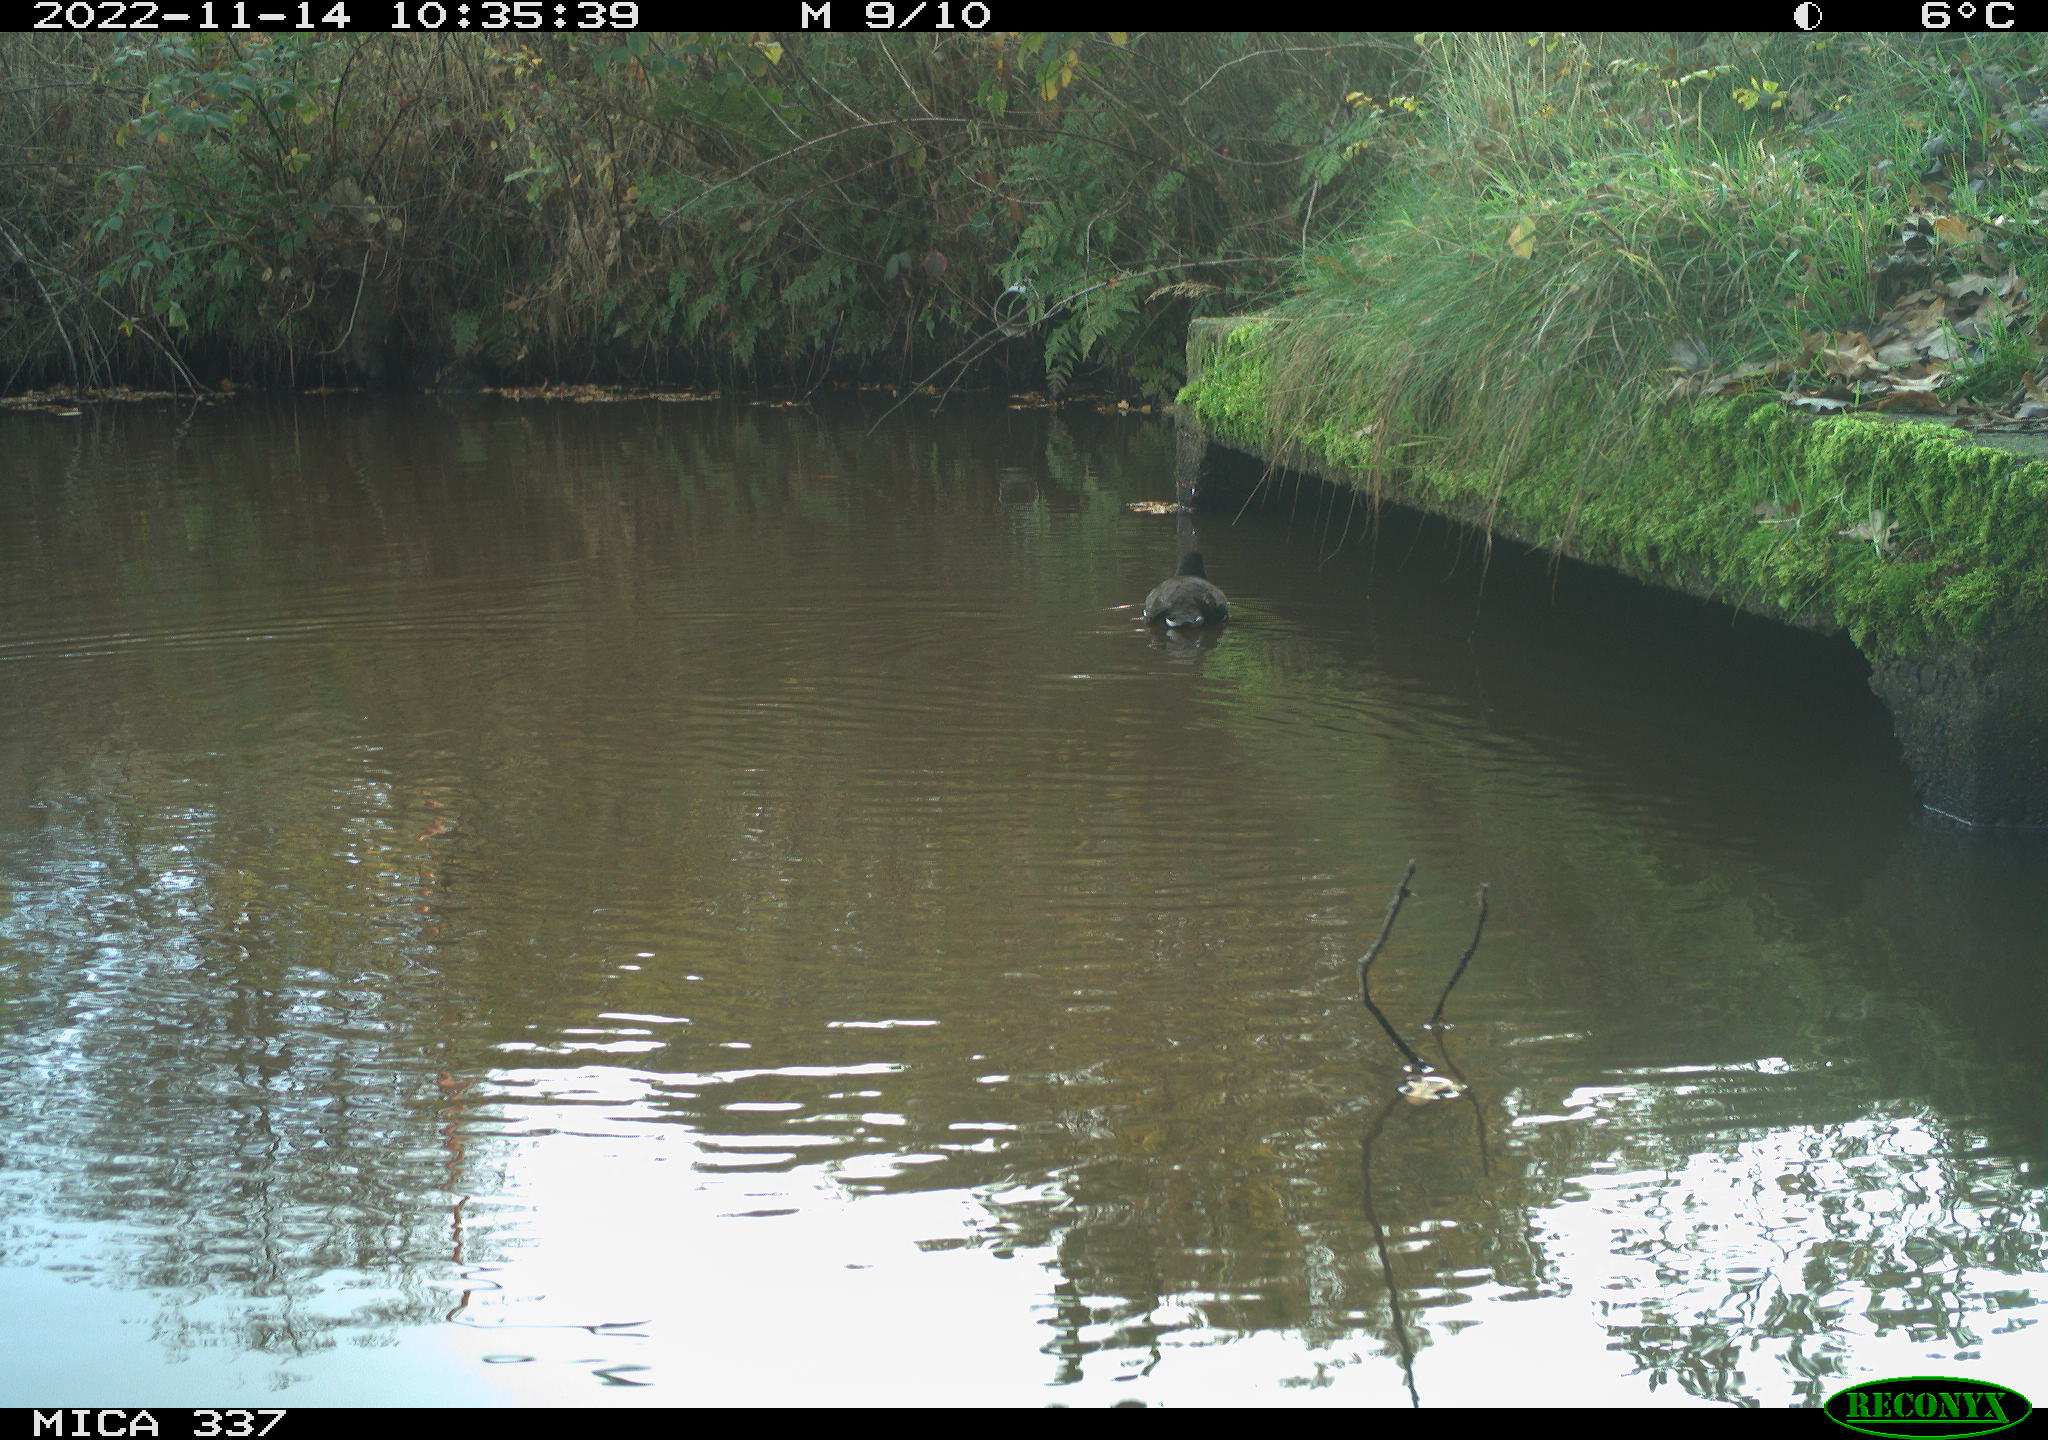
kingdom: Animalia
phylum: Chordata
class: Aves
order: Gruiformes
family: Rallidae
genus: Gallinula
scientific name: Gallinula chloropus
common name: Common moorhen
